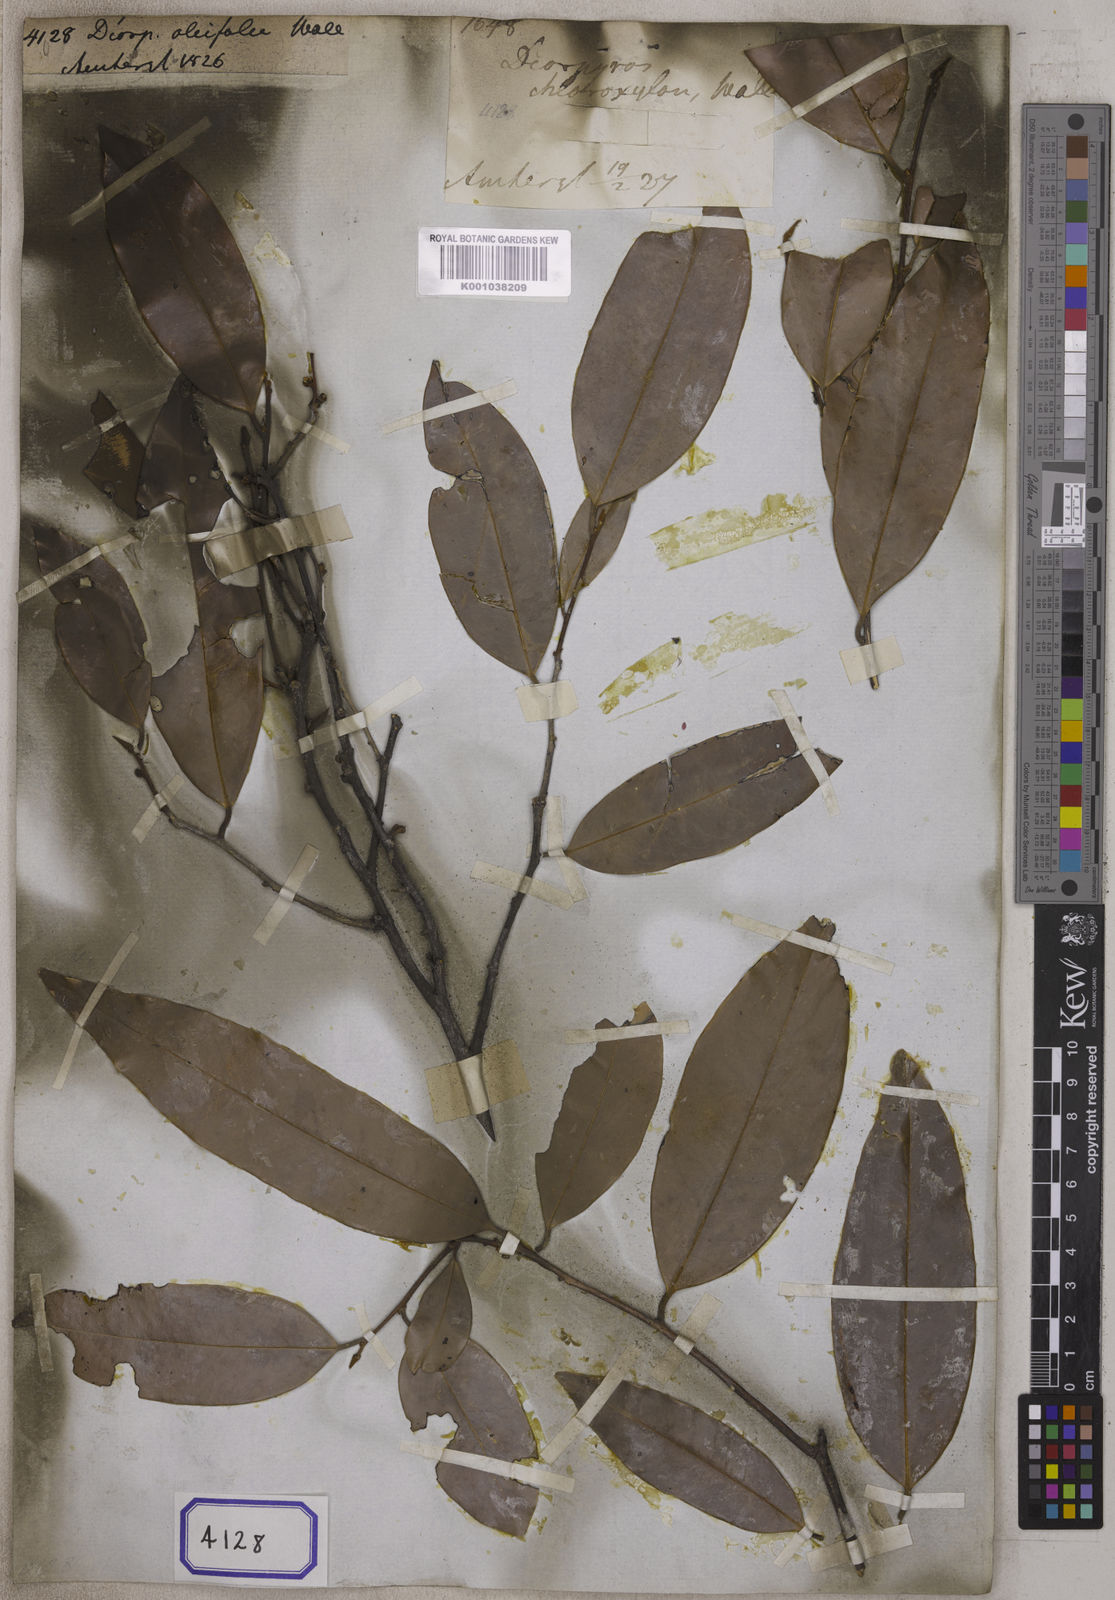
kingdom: Plantae
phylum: Tracheophyta
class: Magnoliopsida
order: Ericales
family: Ebenaceae
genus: Diospyros
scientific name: Diospyros
